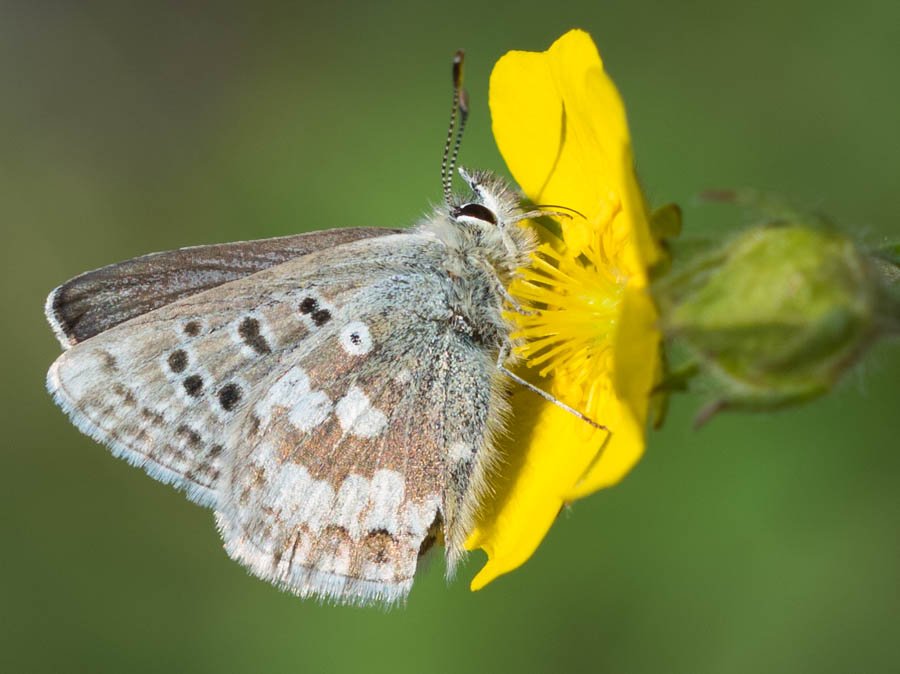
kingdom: Animalia
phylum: Arthropoda
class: Insecta
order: Lepidoptera
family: Lycaenidae
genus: Agriades
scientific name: Agriades glandon
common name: Arctic Blue
